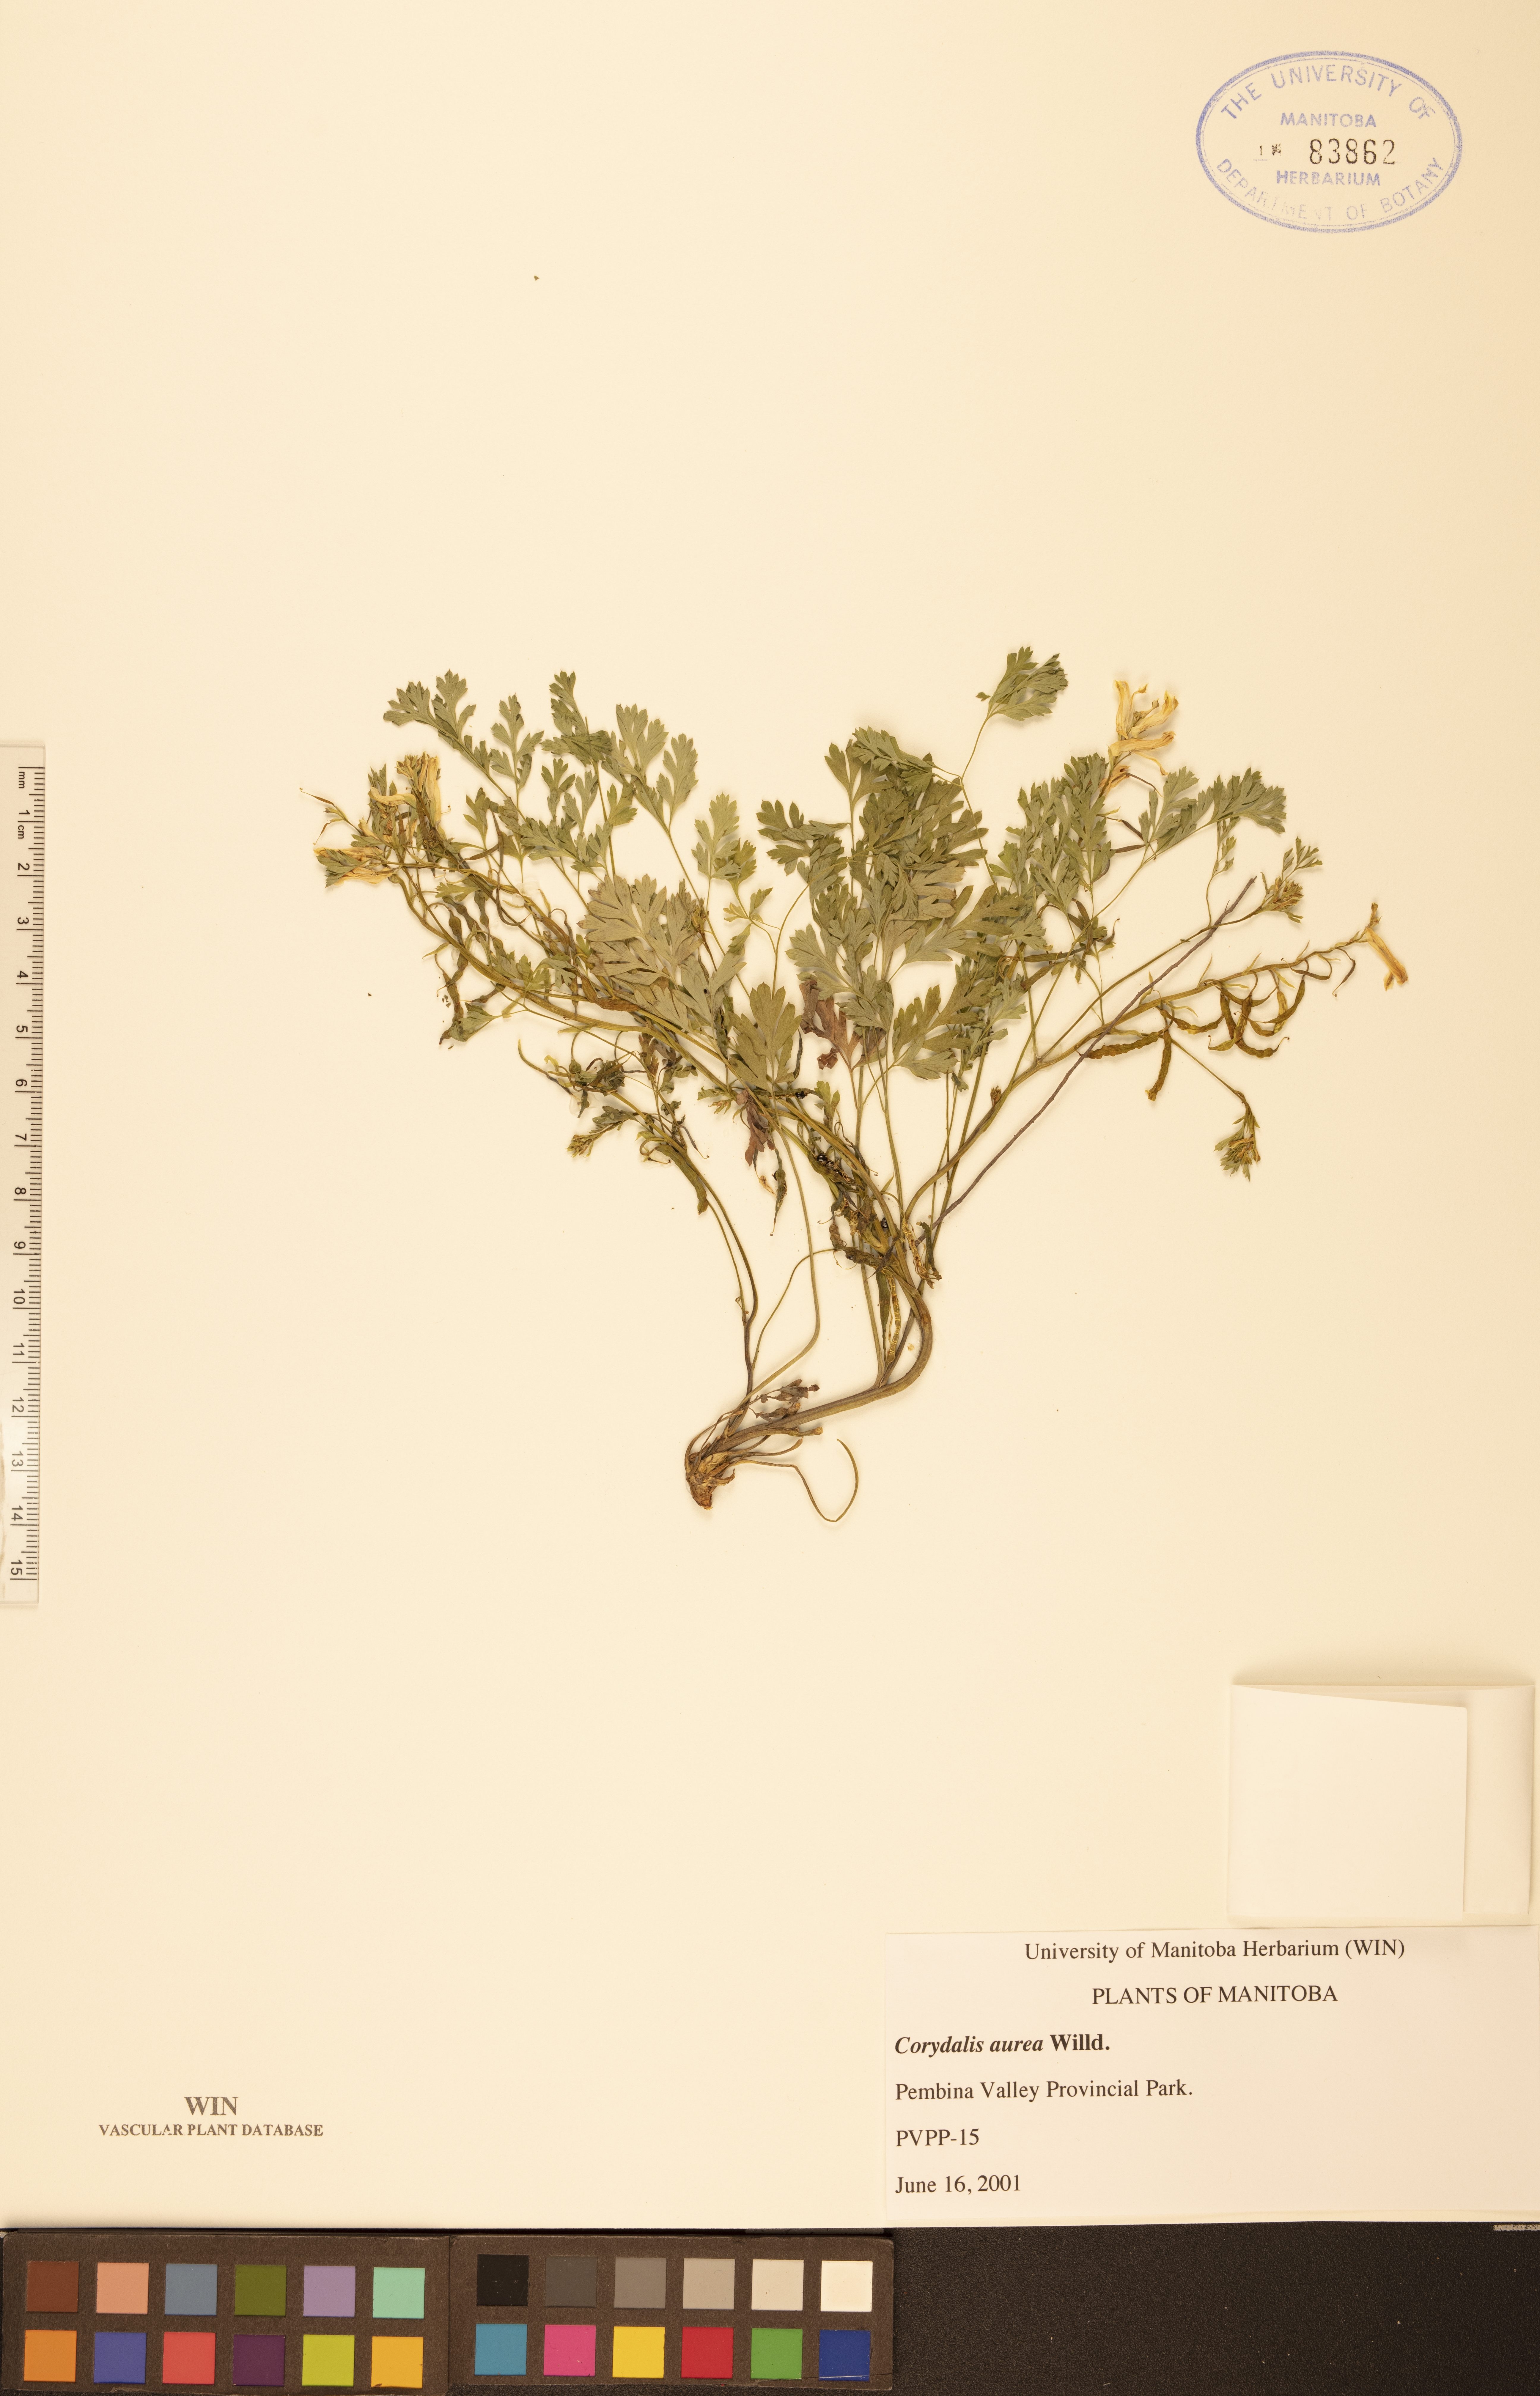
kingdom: Plantae
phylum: Tracheophyta
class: Magnoliopsida
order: Ranunculales
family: Papaveraceae
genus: Corydalis
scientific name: Corydalis aurea
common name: Golden corydalis
